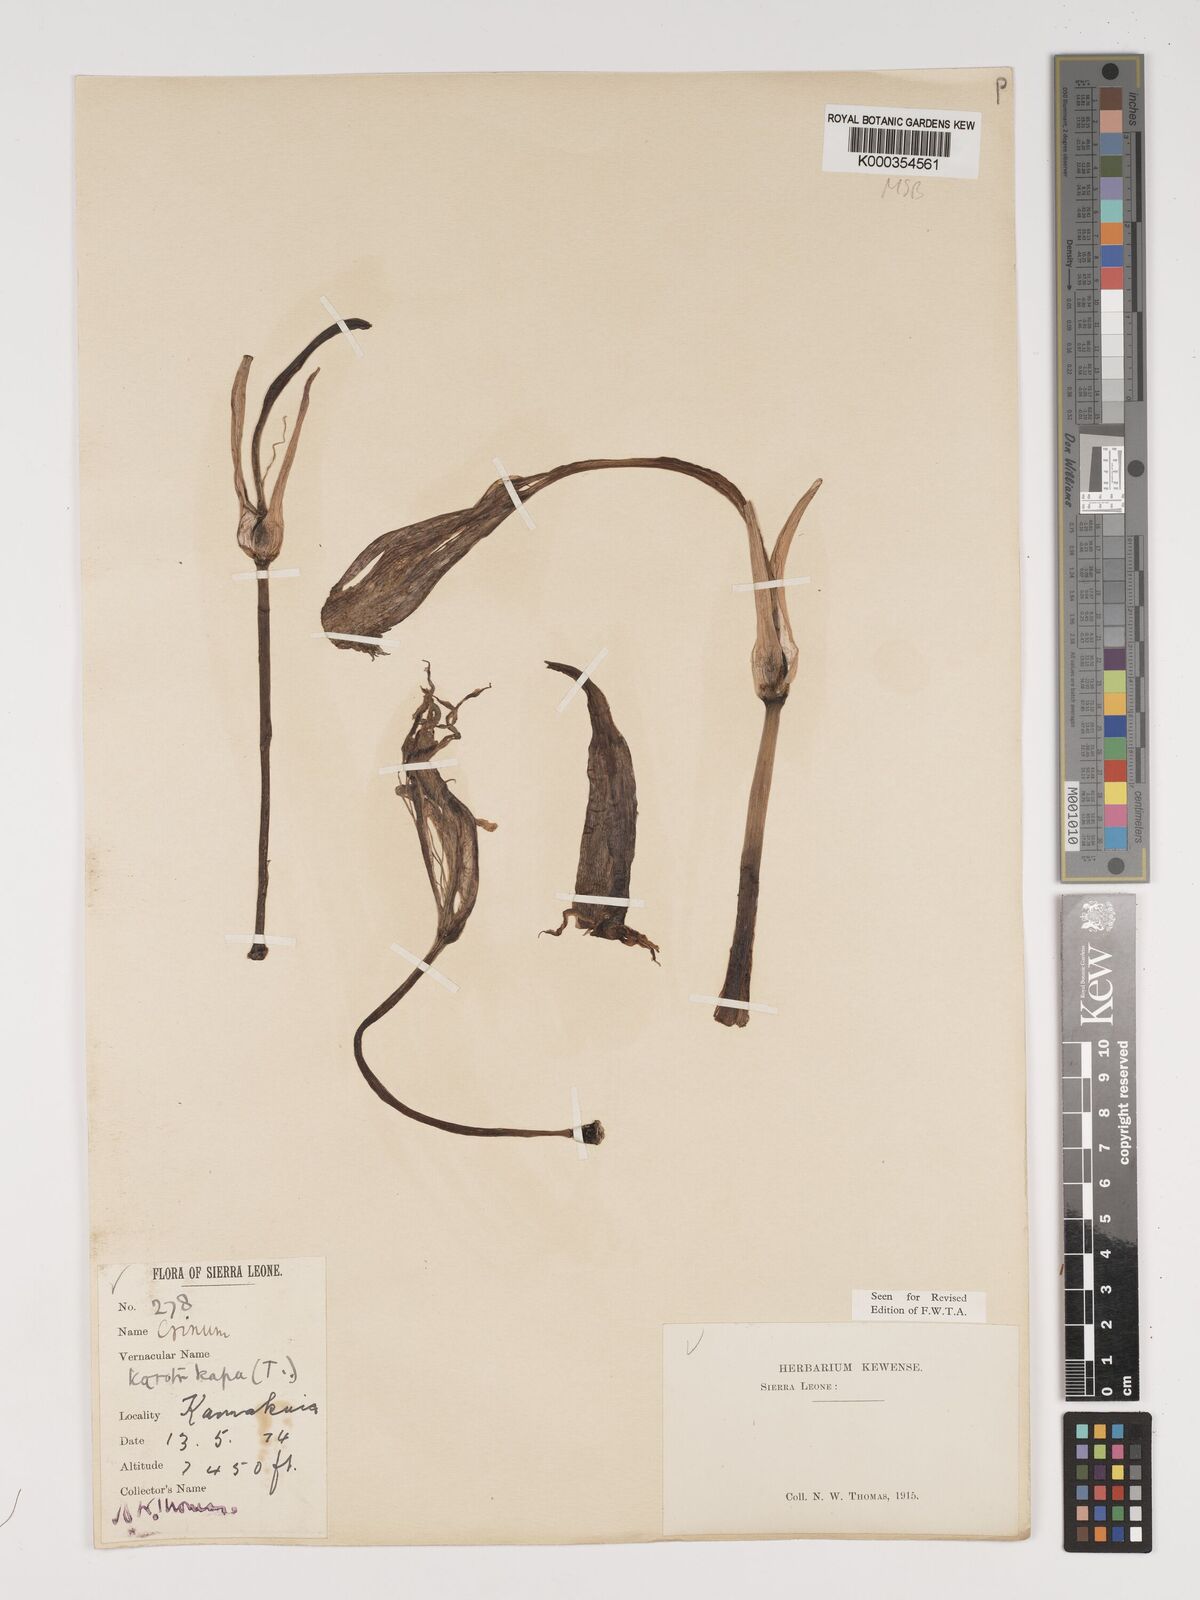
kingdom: Plantae
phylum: Tracheophyta
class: Liliopsida
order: Asparagales
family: Amaryllidaceae
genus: Crinum
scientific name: Crinum zeylanicum
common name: Ceylon swamplily
